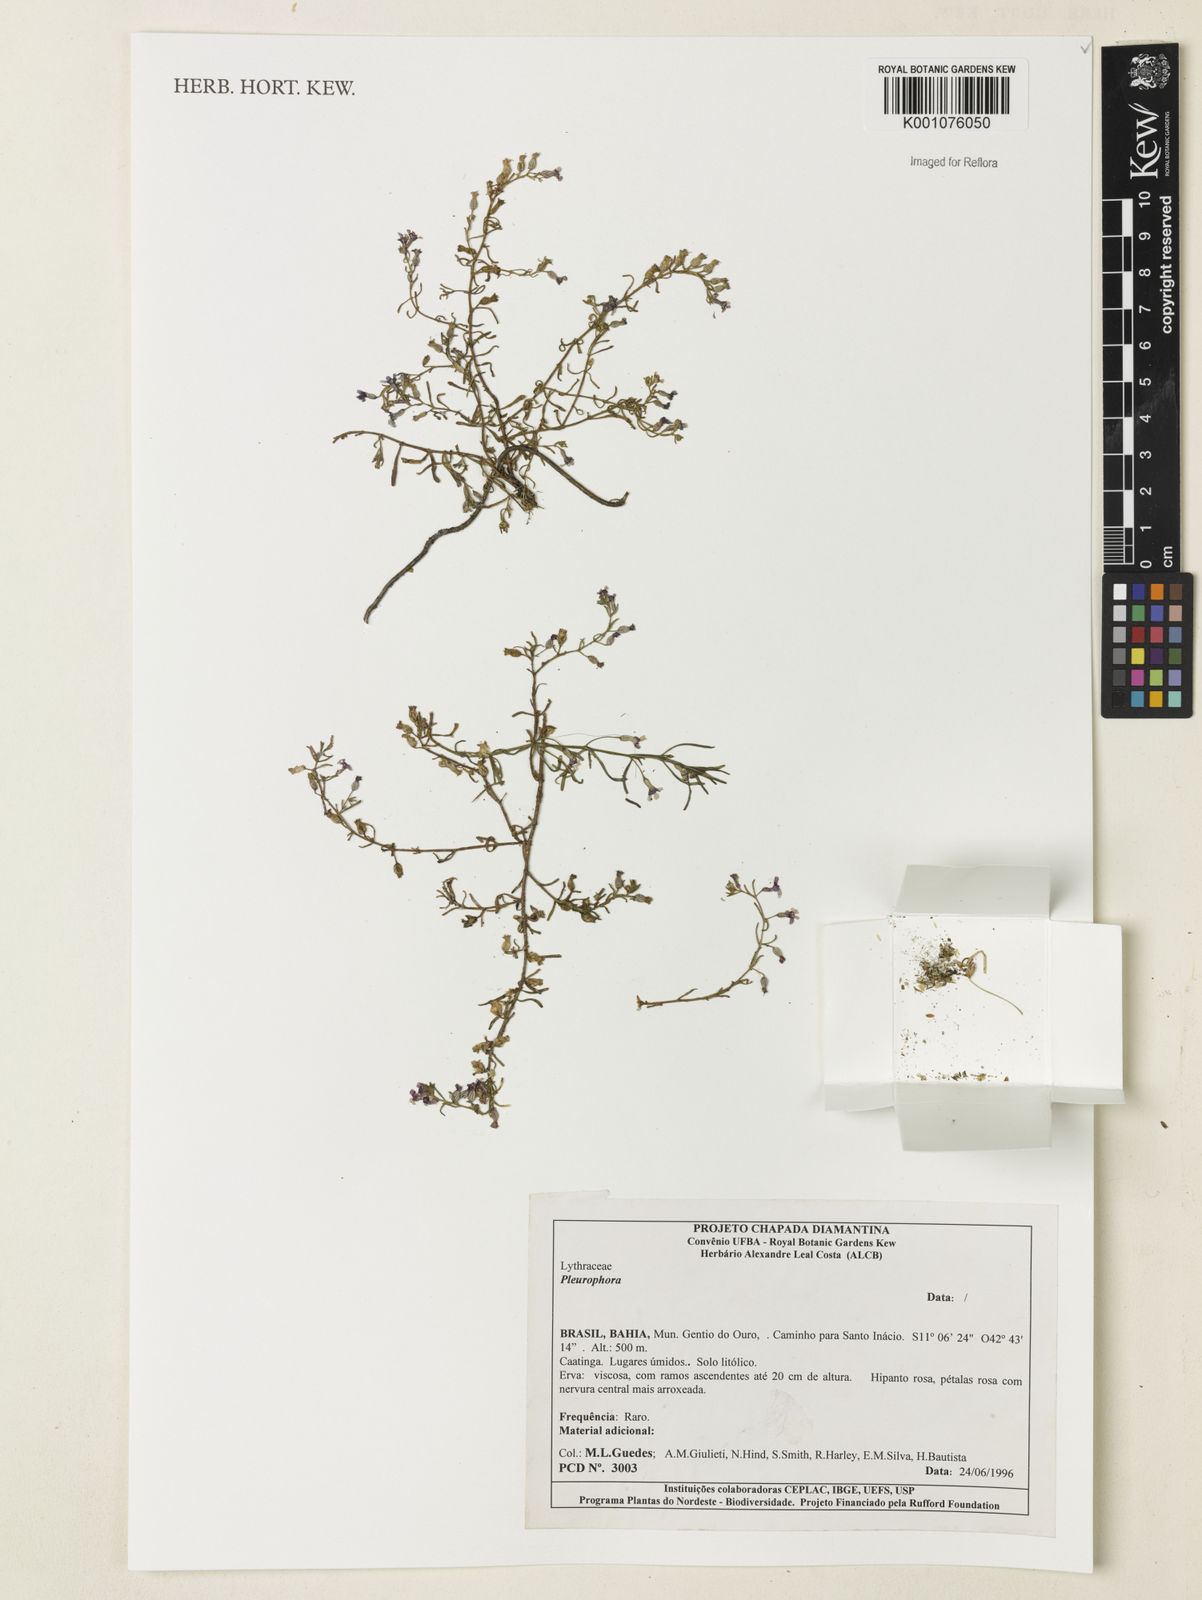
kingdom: Plantae
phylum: Tracheophyta
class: Magnoliopsida
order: Myrtales
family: Lythraceae
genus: Pleurophora
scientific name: Pleurophora
